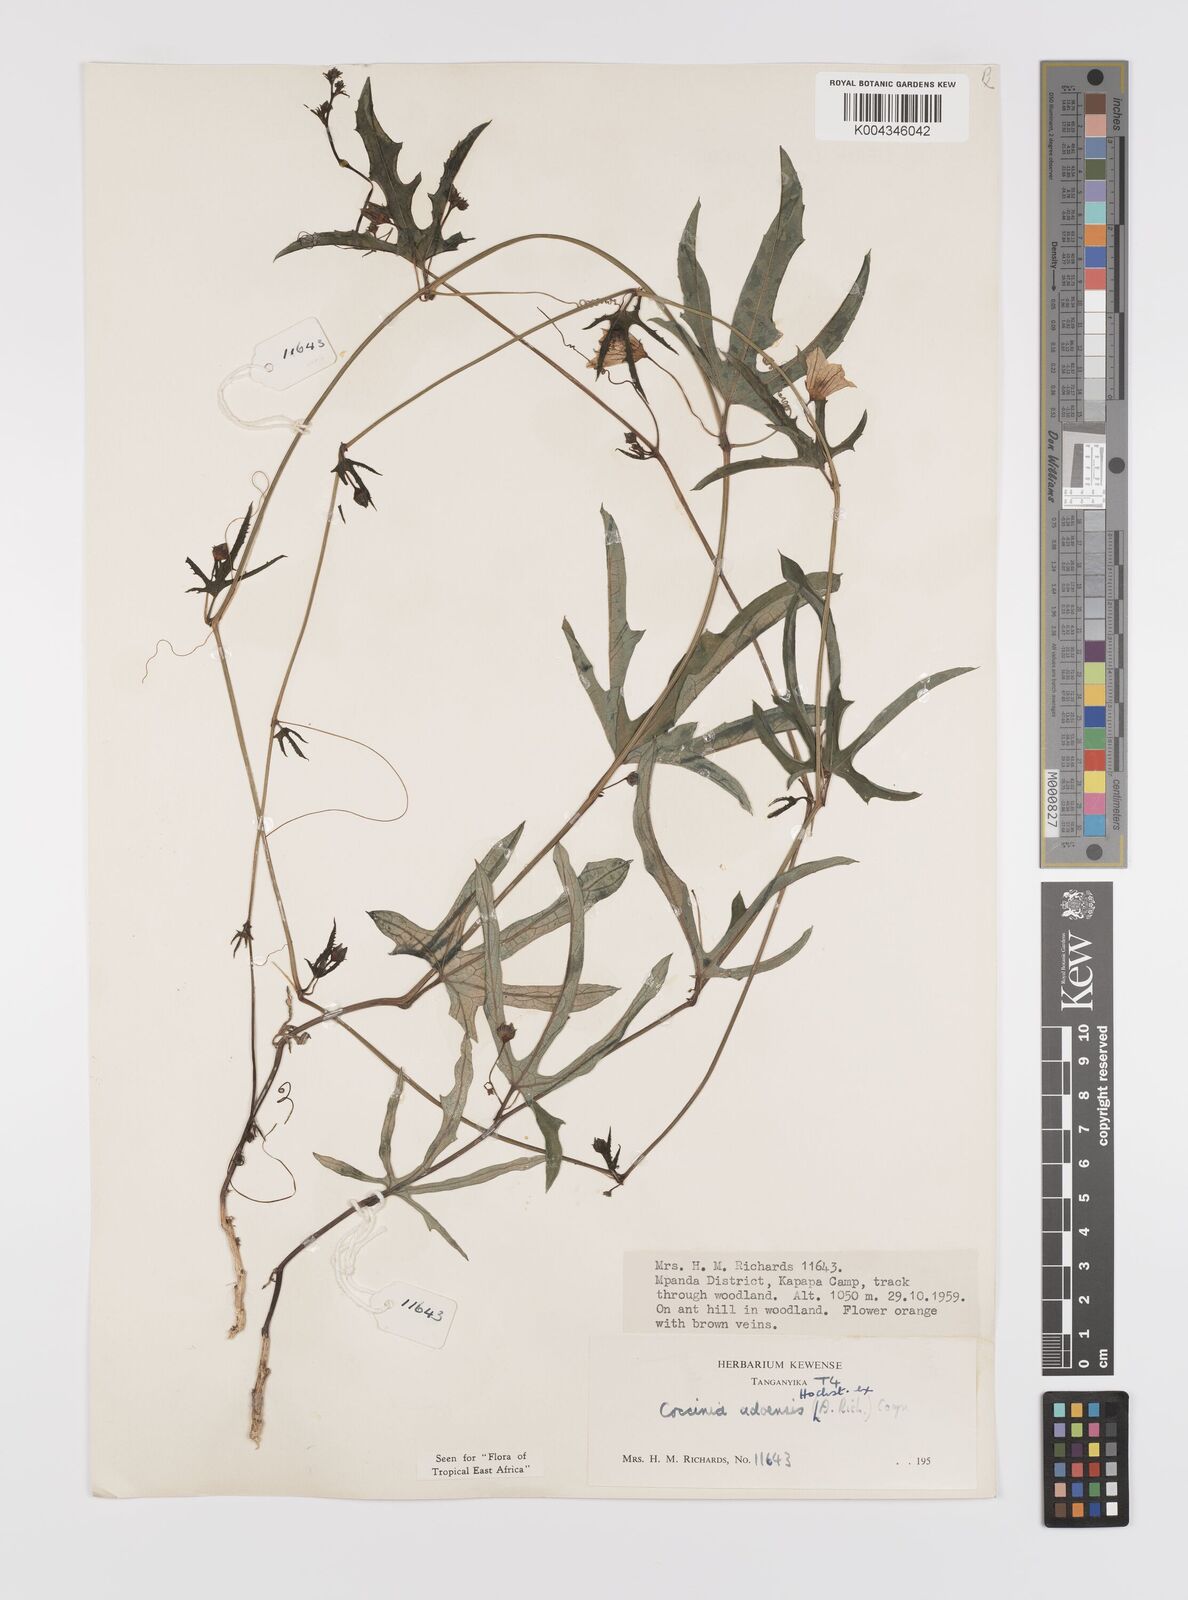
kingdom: Plantae
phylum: Tracheophyta
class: Magnoliopsida
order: Cucurbitales
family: Cucurbitaceae
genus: Coccinia
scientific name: Coccinia adoensis
